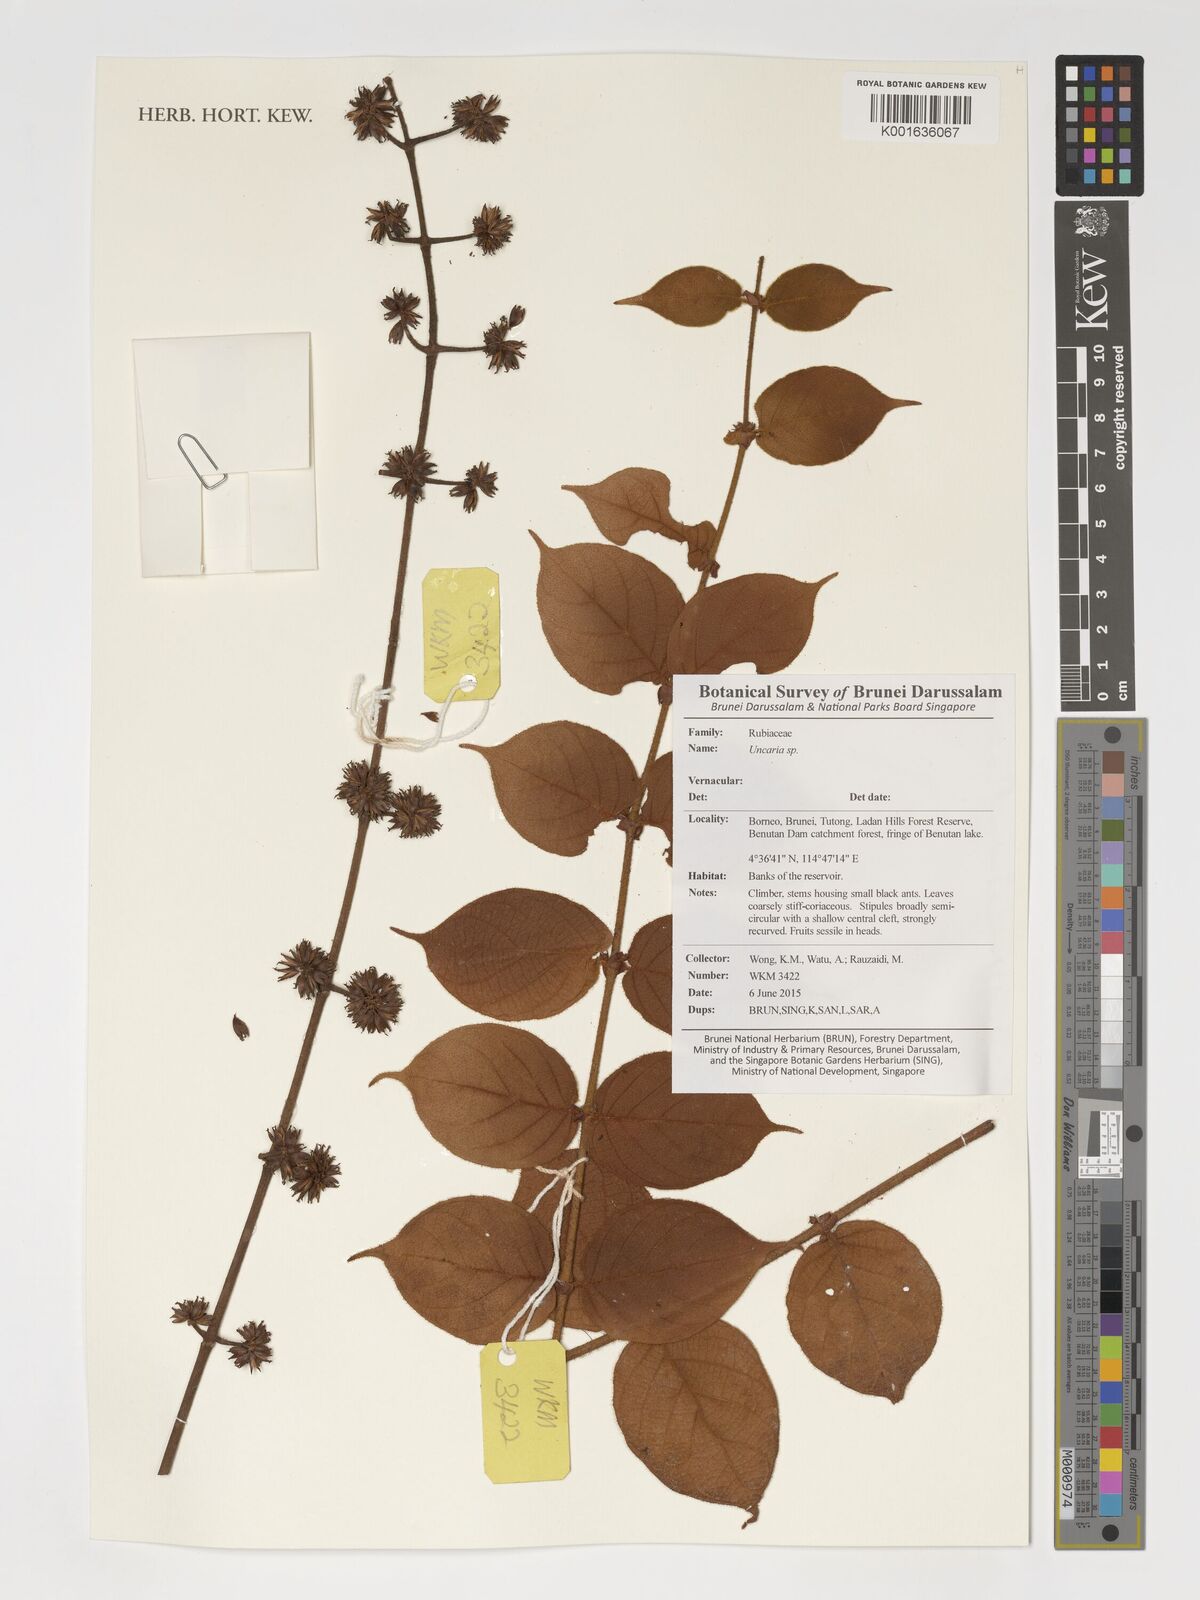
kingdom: Plantae
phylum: Tracheophyta
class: Magnoliopsida
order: Gentianales
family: Rubiaceae
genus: Uncaria
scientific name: Uncaria
